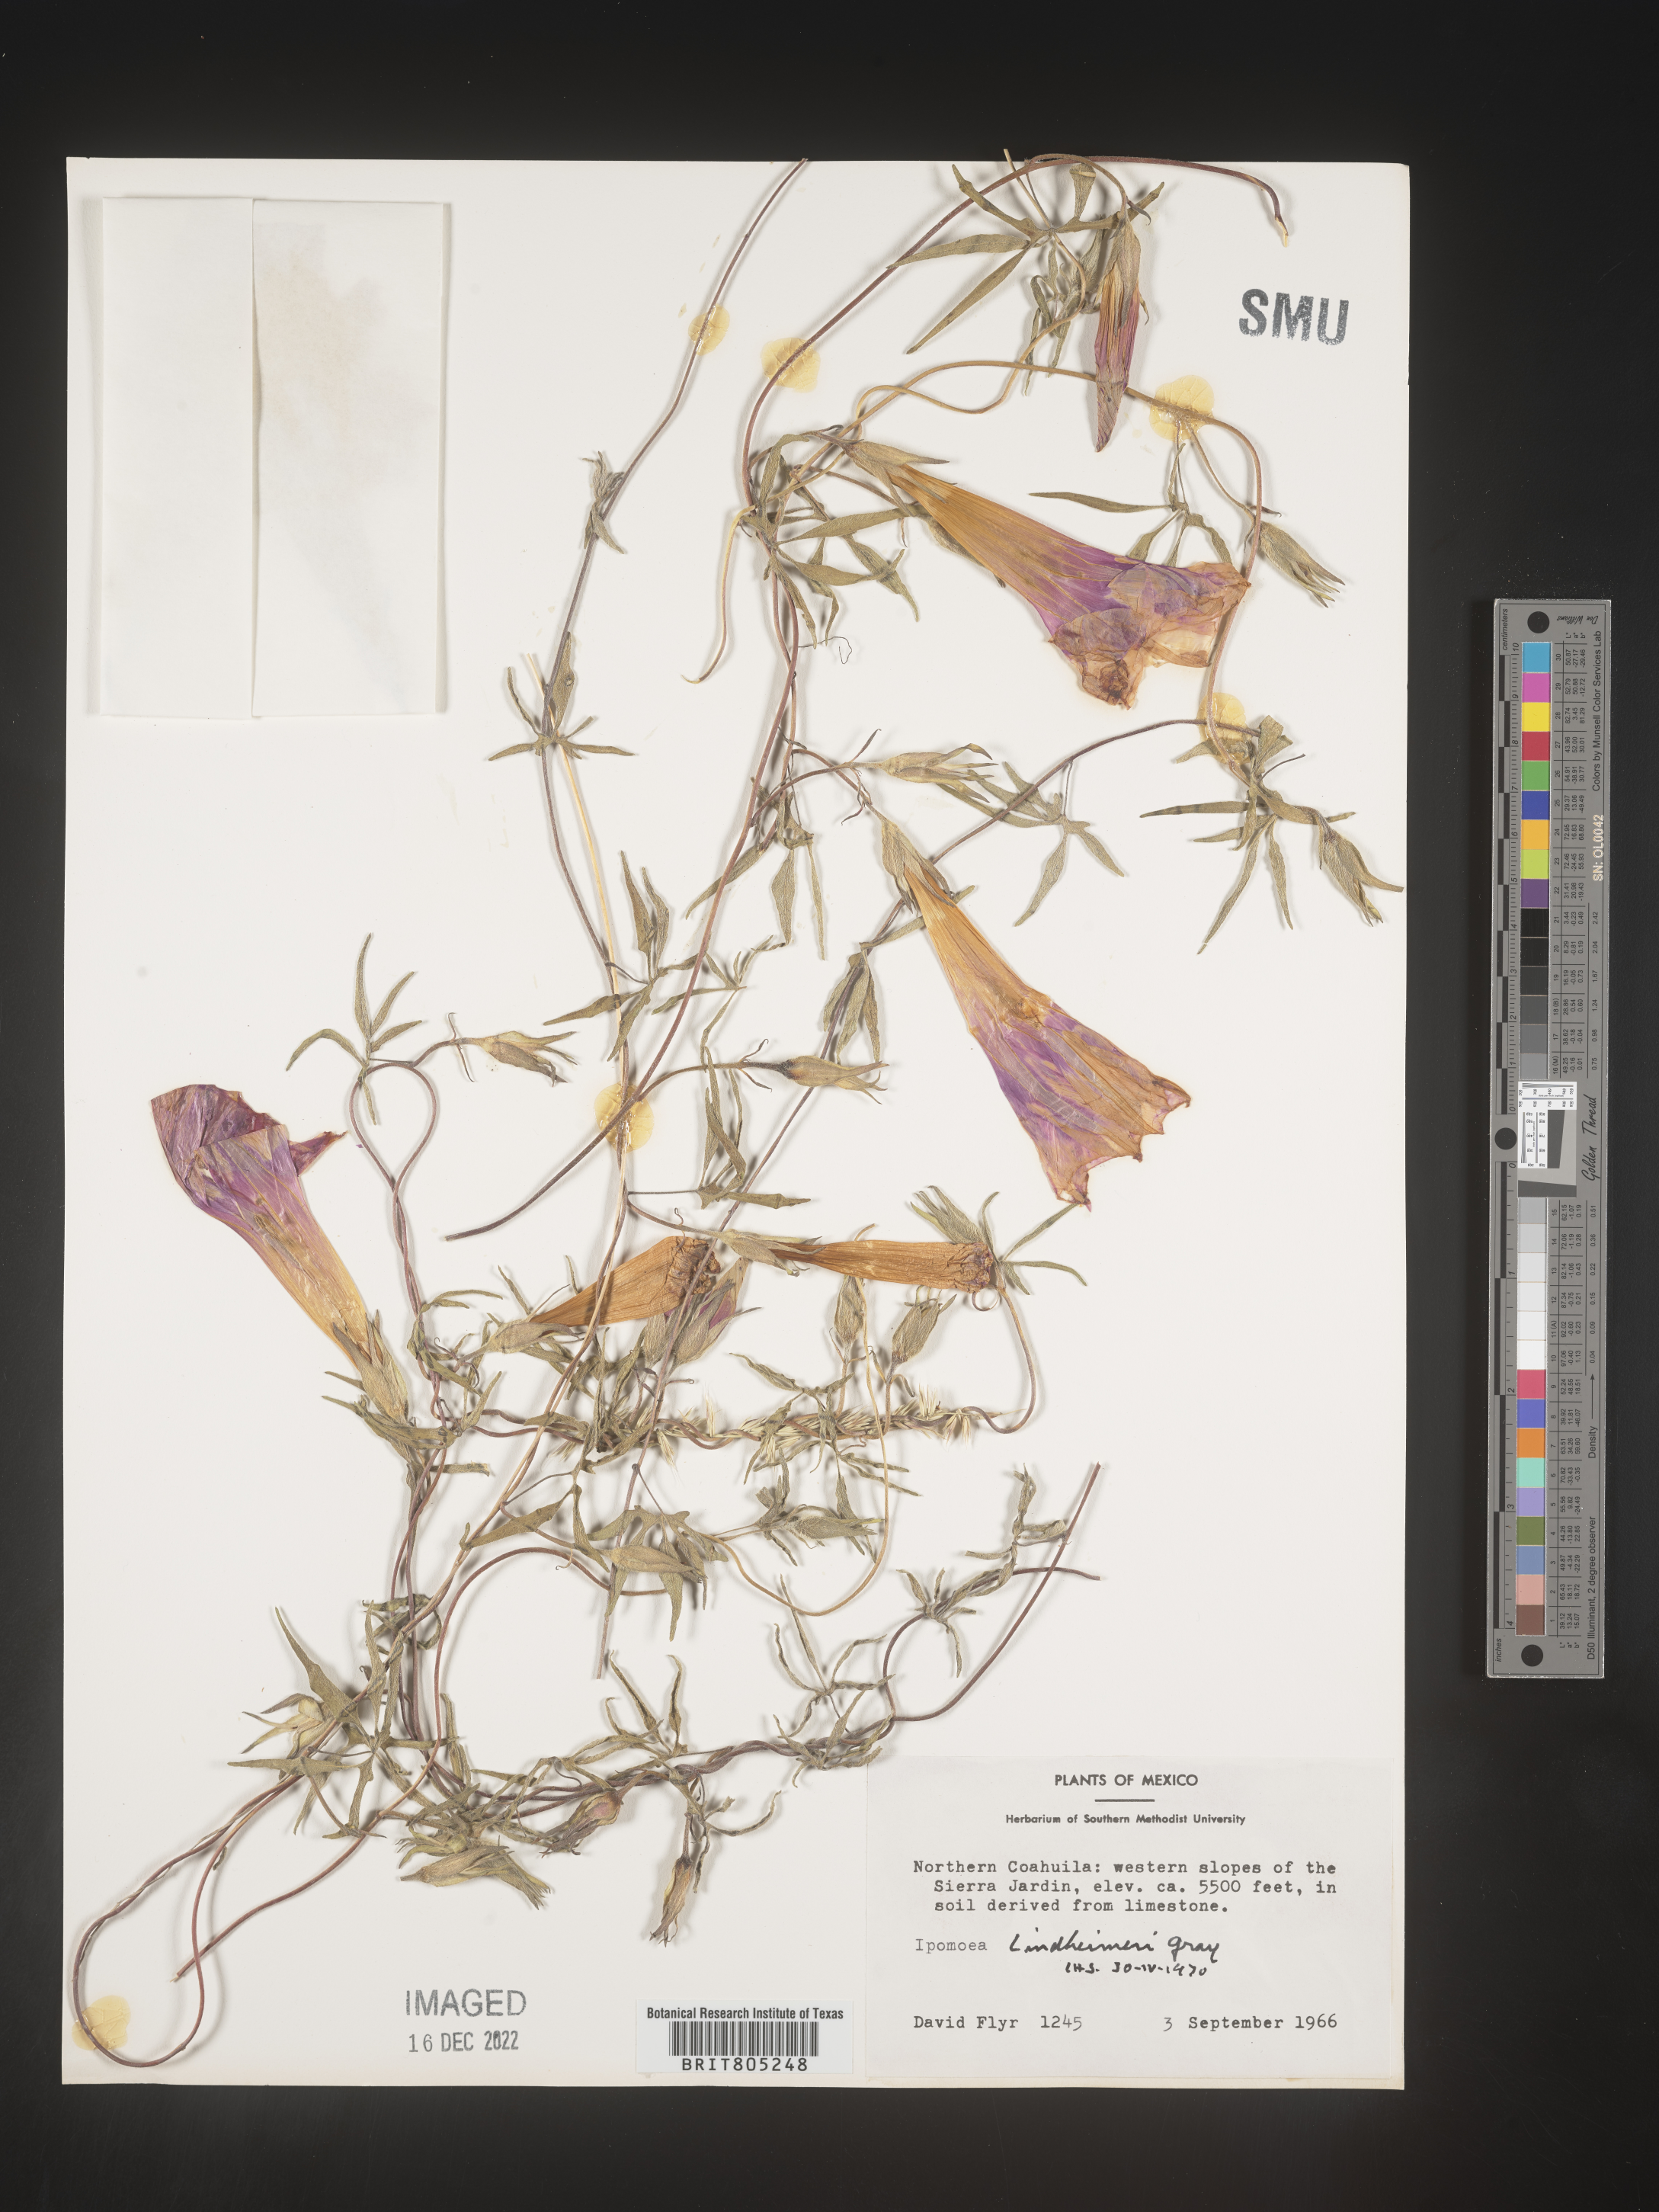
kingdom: Plantae
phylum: Tracheophyta
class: Magnoliopsida
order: Solanales
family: Convolvulaceae
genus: Ipomoea
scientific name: Ipomoea
